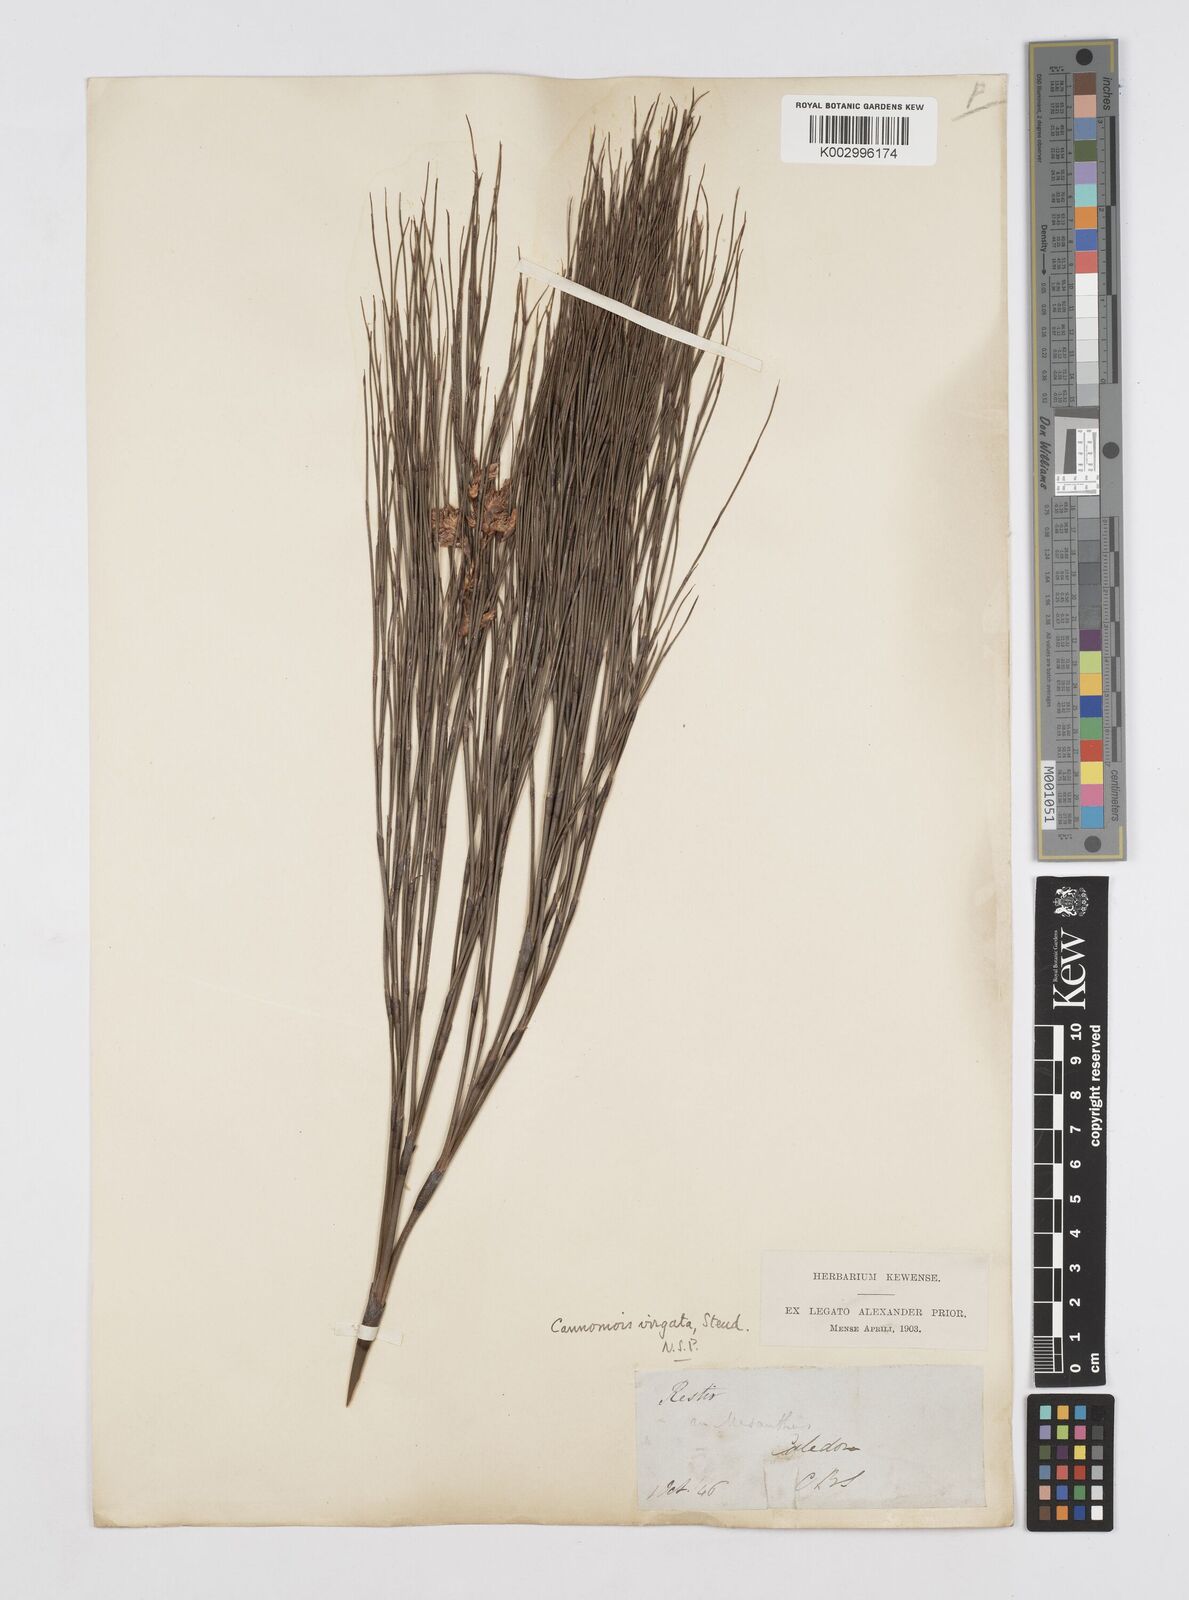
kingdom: Plantae
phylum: Tracheophyta
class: Liliopsida
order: Poales
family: Restionaceae
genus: Cannomois
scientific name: Cannomois virgata
